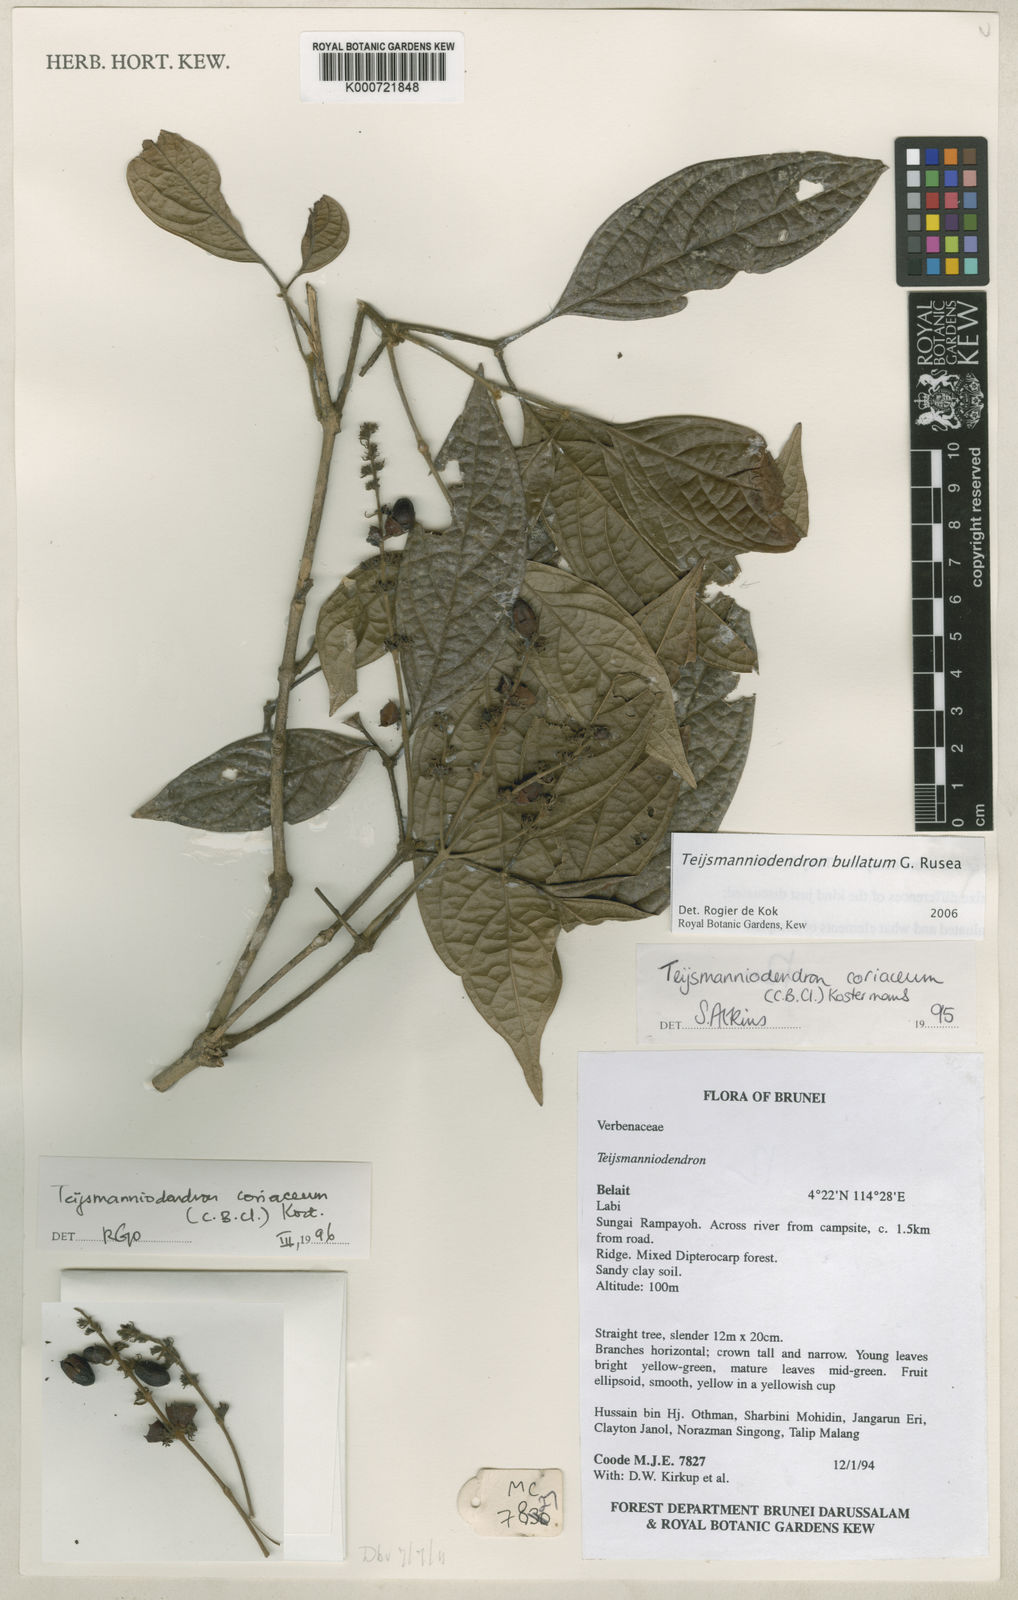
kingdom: Plantae
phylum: Tracheophyta
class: Magnoliopsida
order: Lamiales
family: Lamiaceae
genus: Teijsmanniodendron
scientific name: Teijsmanniodendron bullatum
